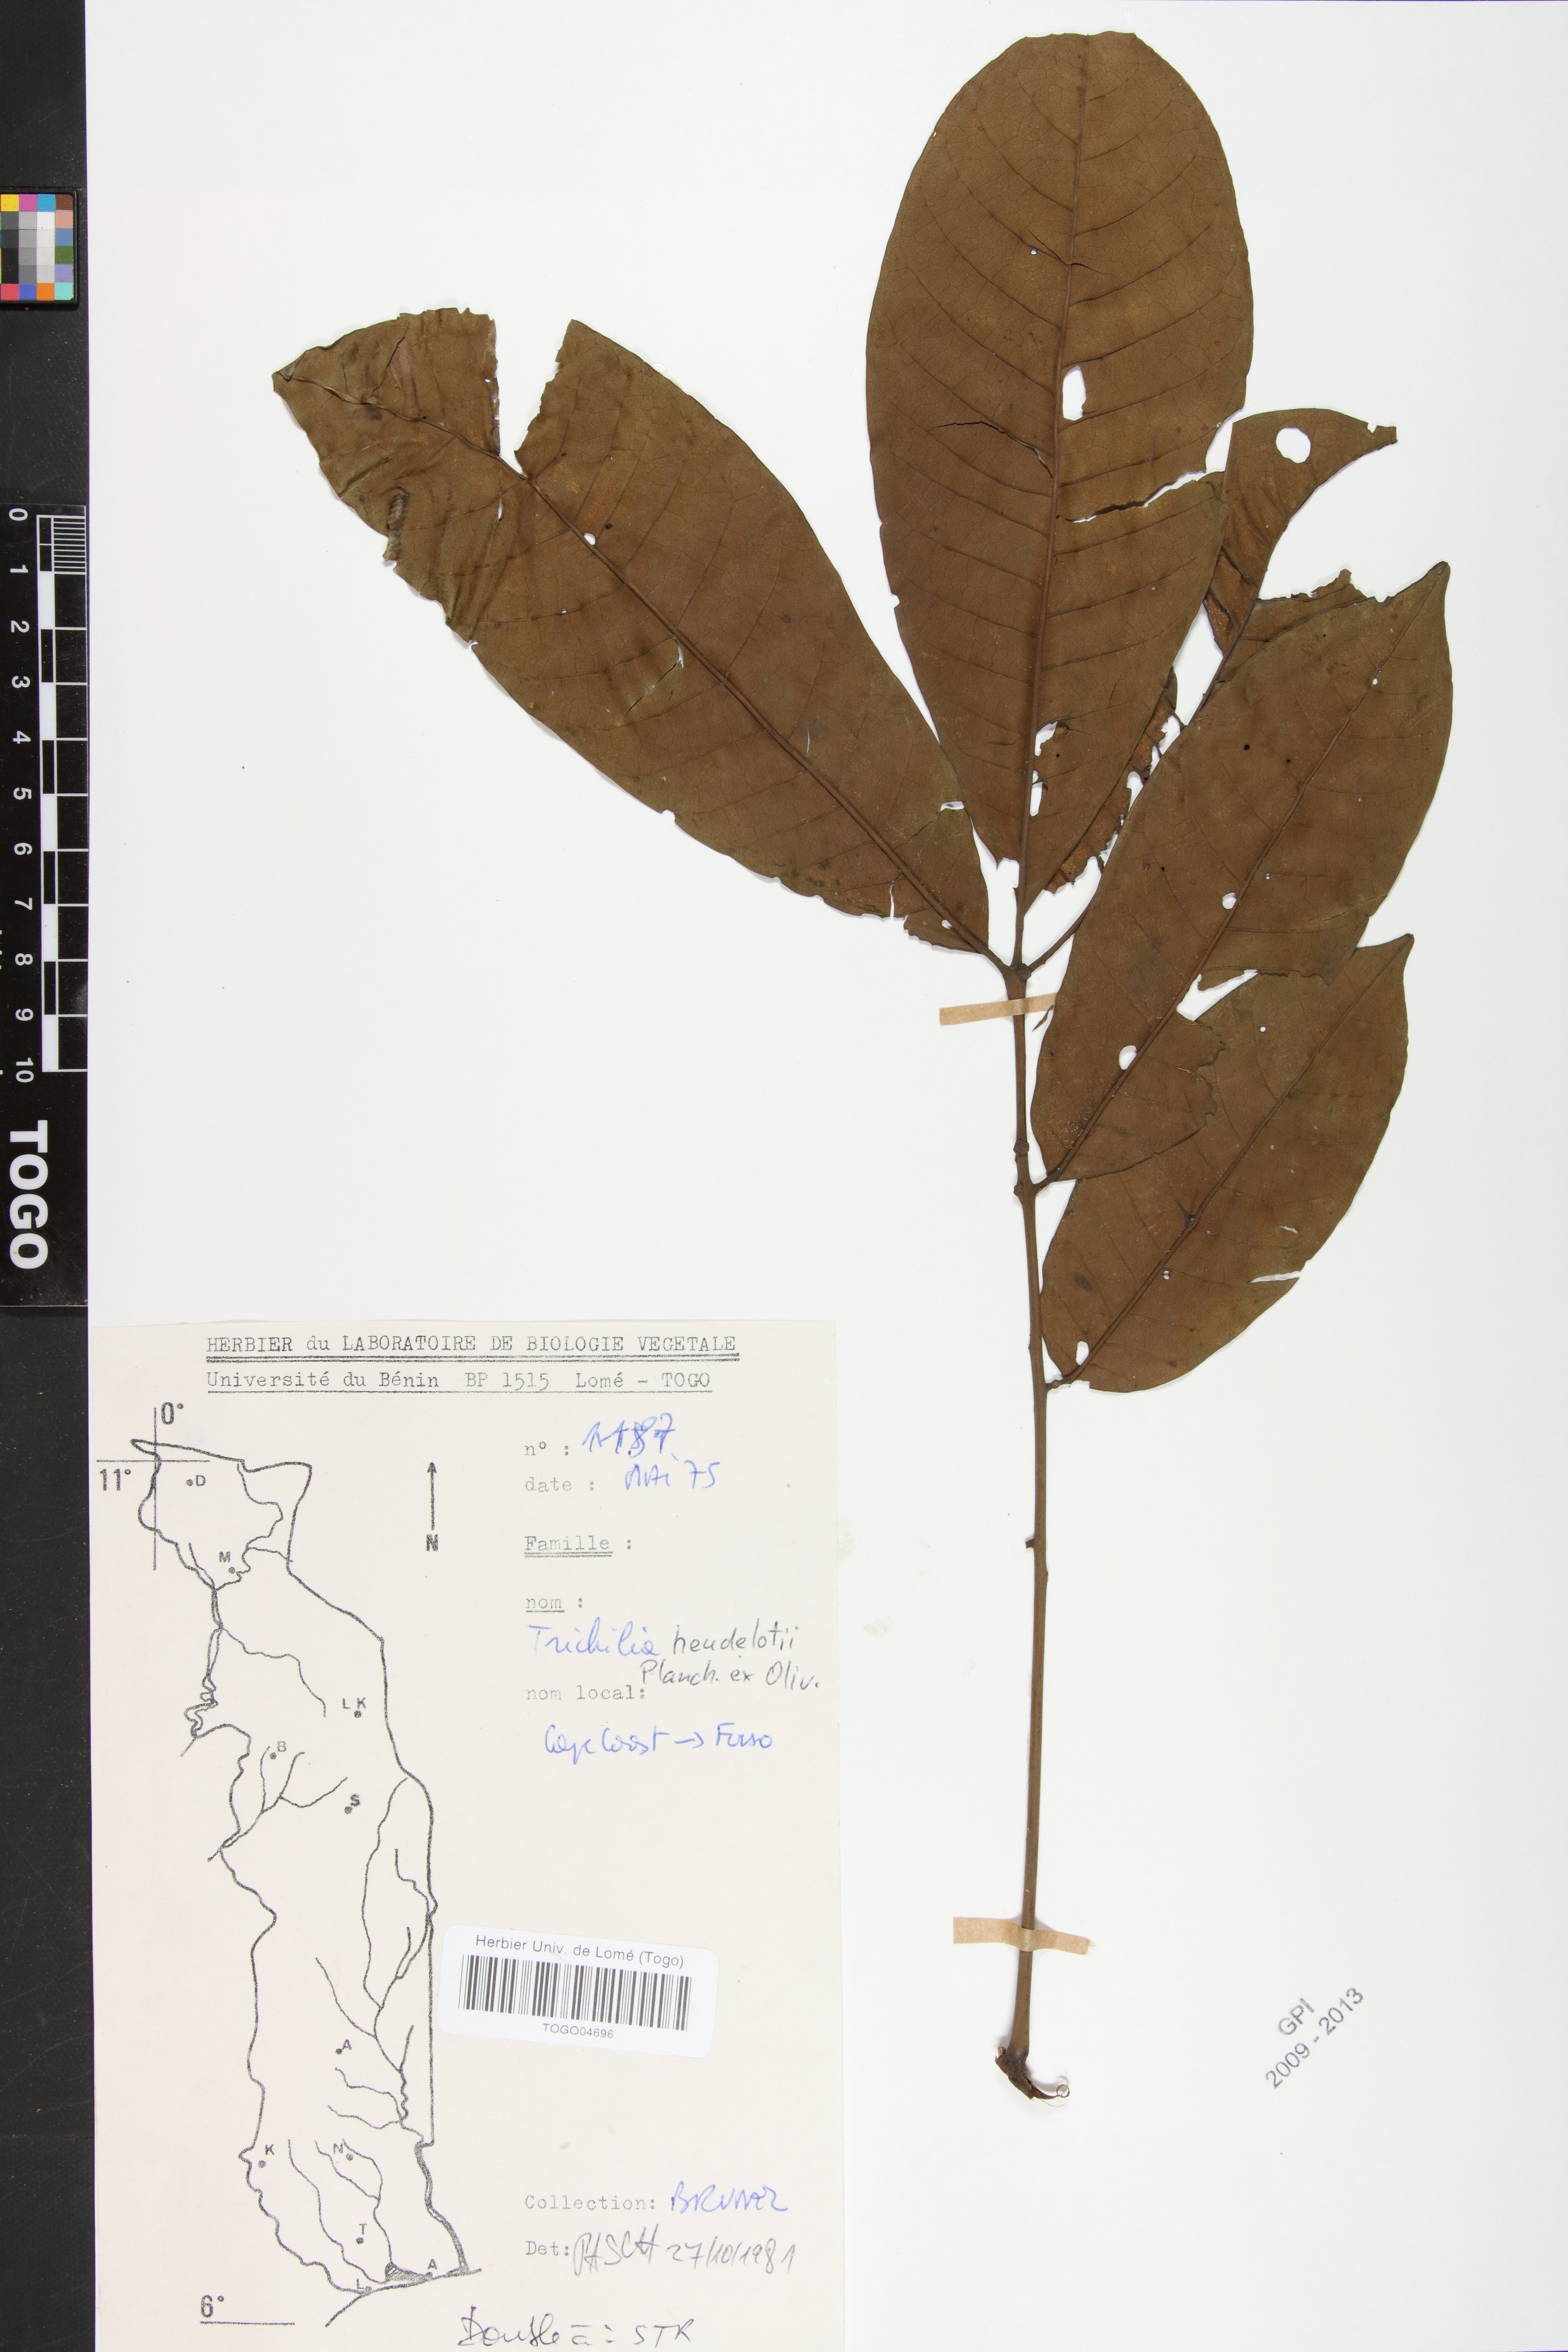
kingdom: Plantae
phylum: Tracheophyta
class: Magnoliopsida
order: Sapindales
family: Meliaceae
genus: Trichilia
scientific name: Trichilia monadelpha
